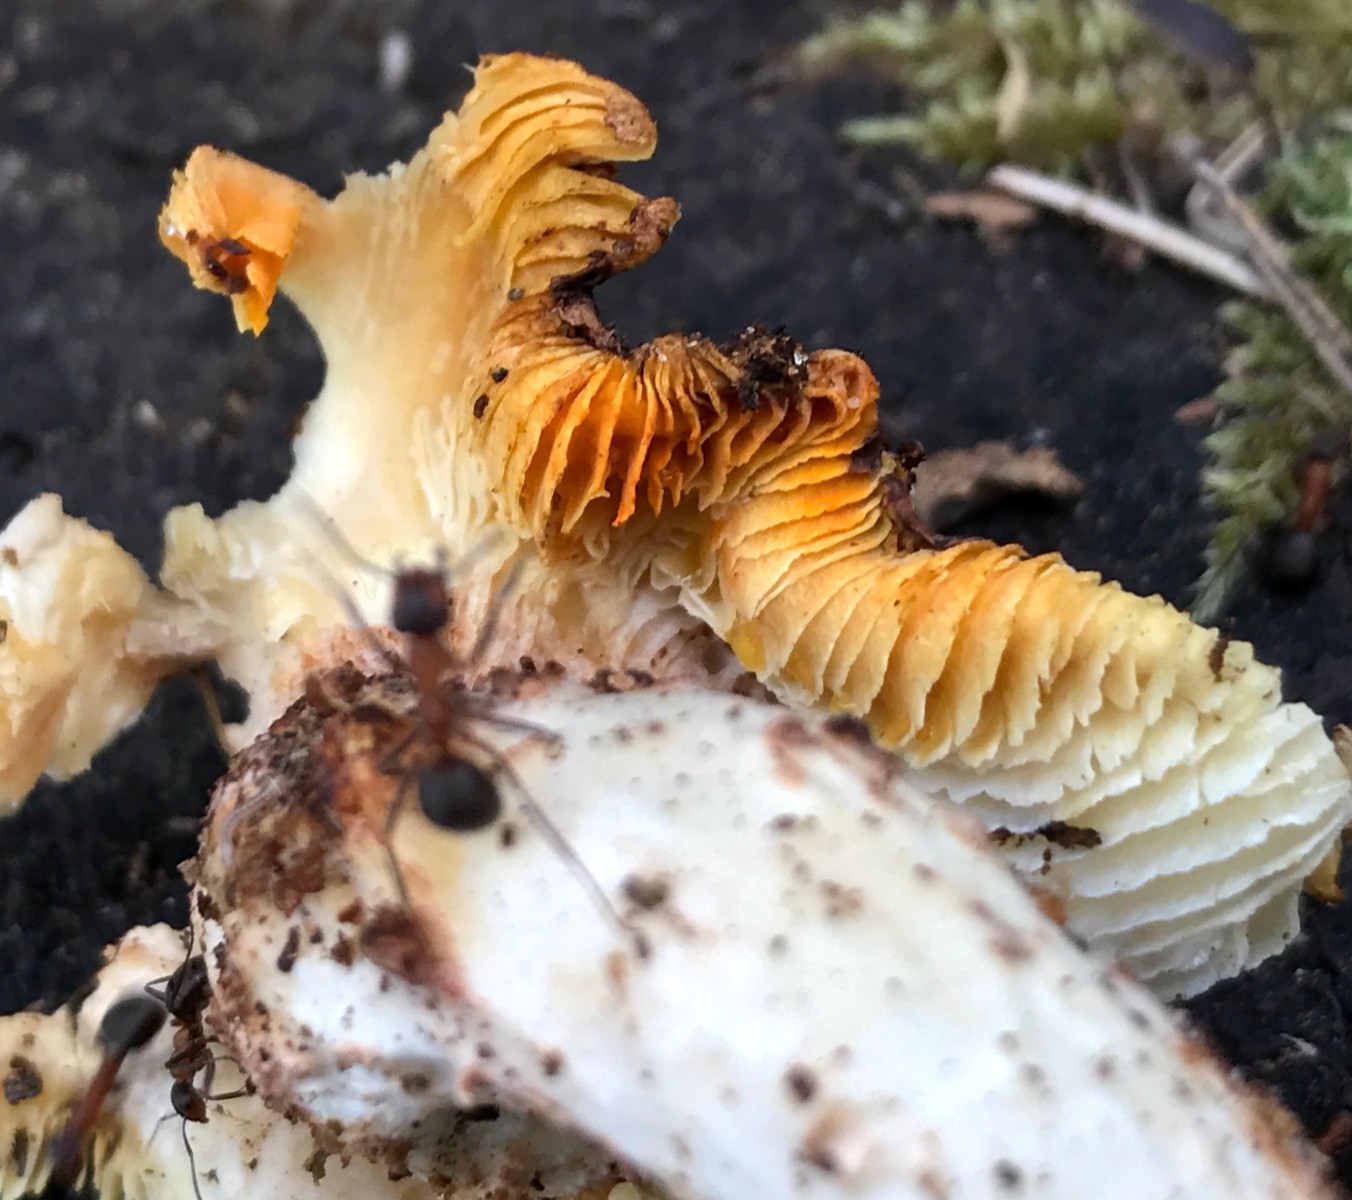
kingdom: Fungi
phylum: Basidiomycota
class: Agaricomycetes
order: Gloeophyllales
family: Gloeophyllaceae
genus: Neolentinus
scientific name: Neolentinus lepideus
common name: skællet sejhat
